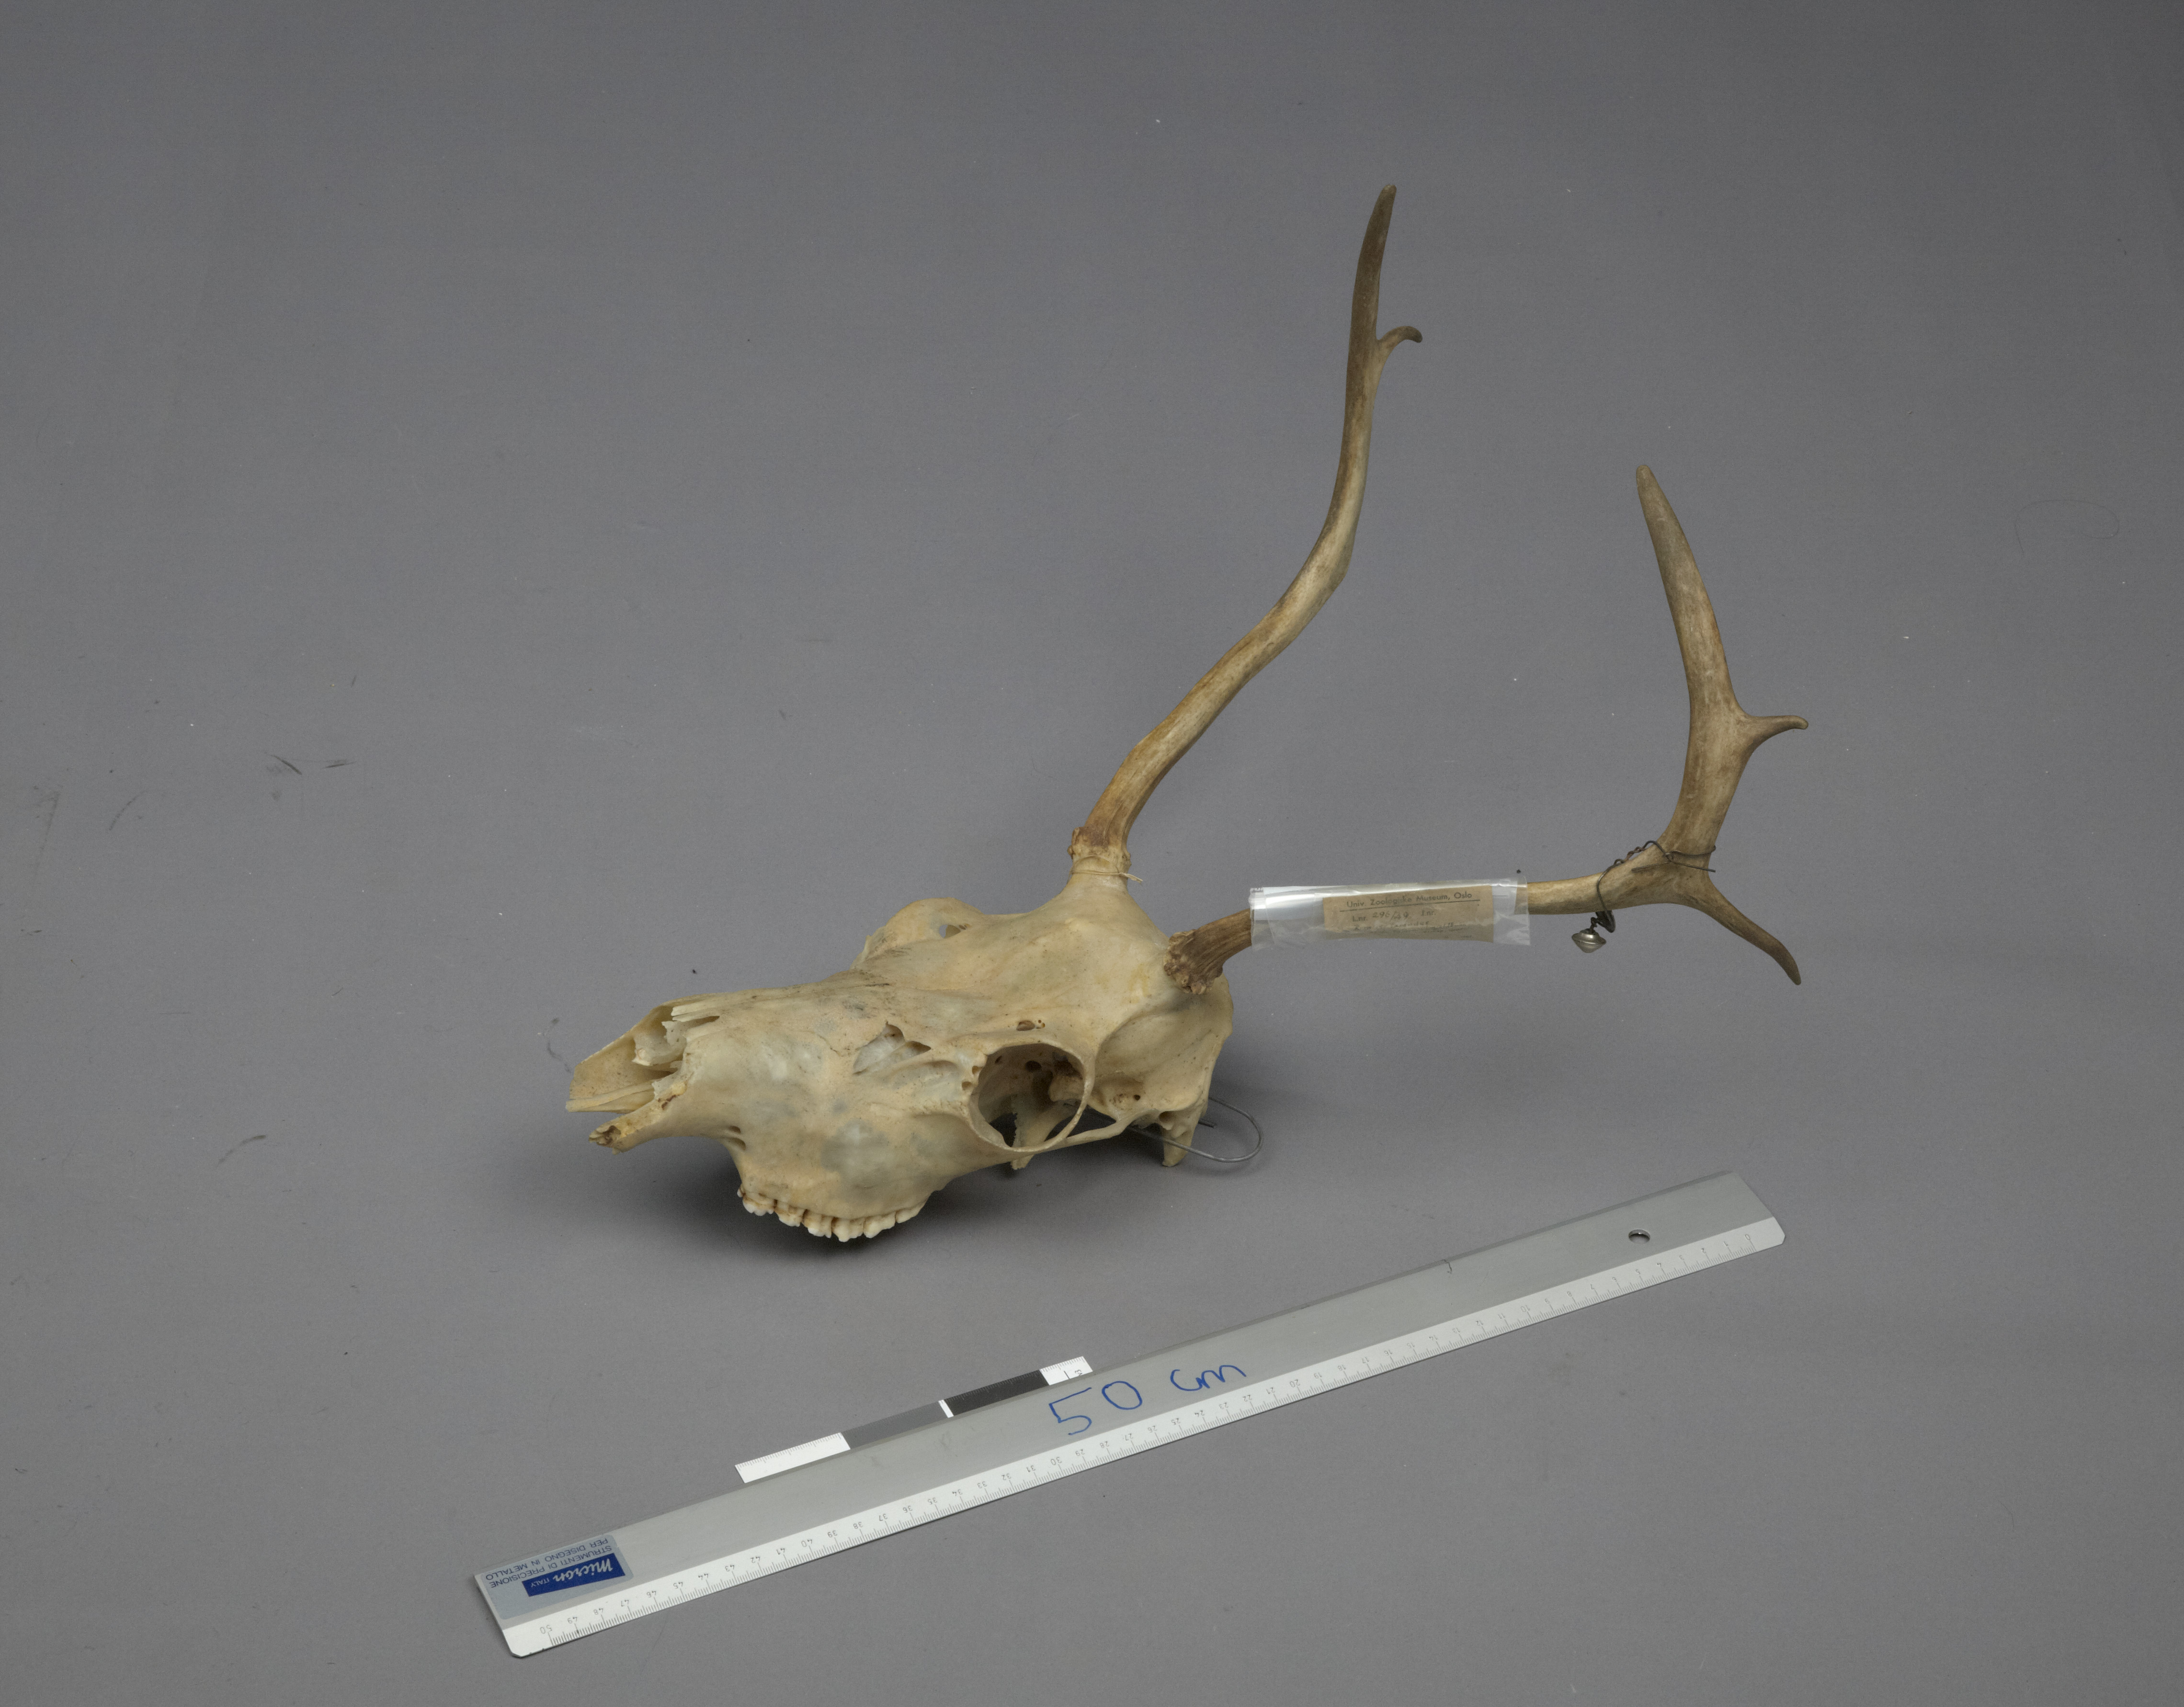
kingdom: Animalia
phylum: Chordata
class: Mammalia
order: Artiodactyla
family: Cervidae
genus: Rangifer
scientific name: Rangifer tarandus
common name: Reindeer
